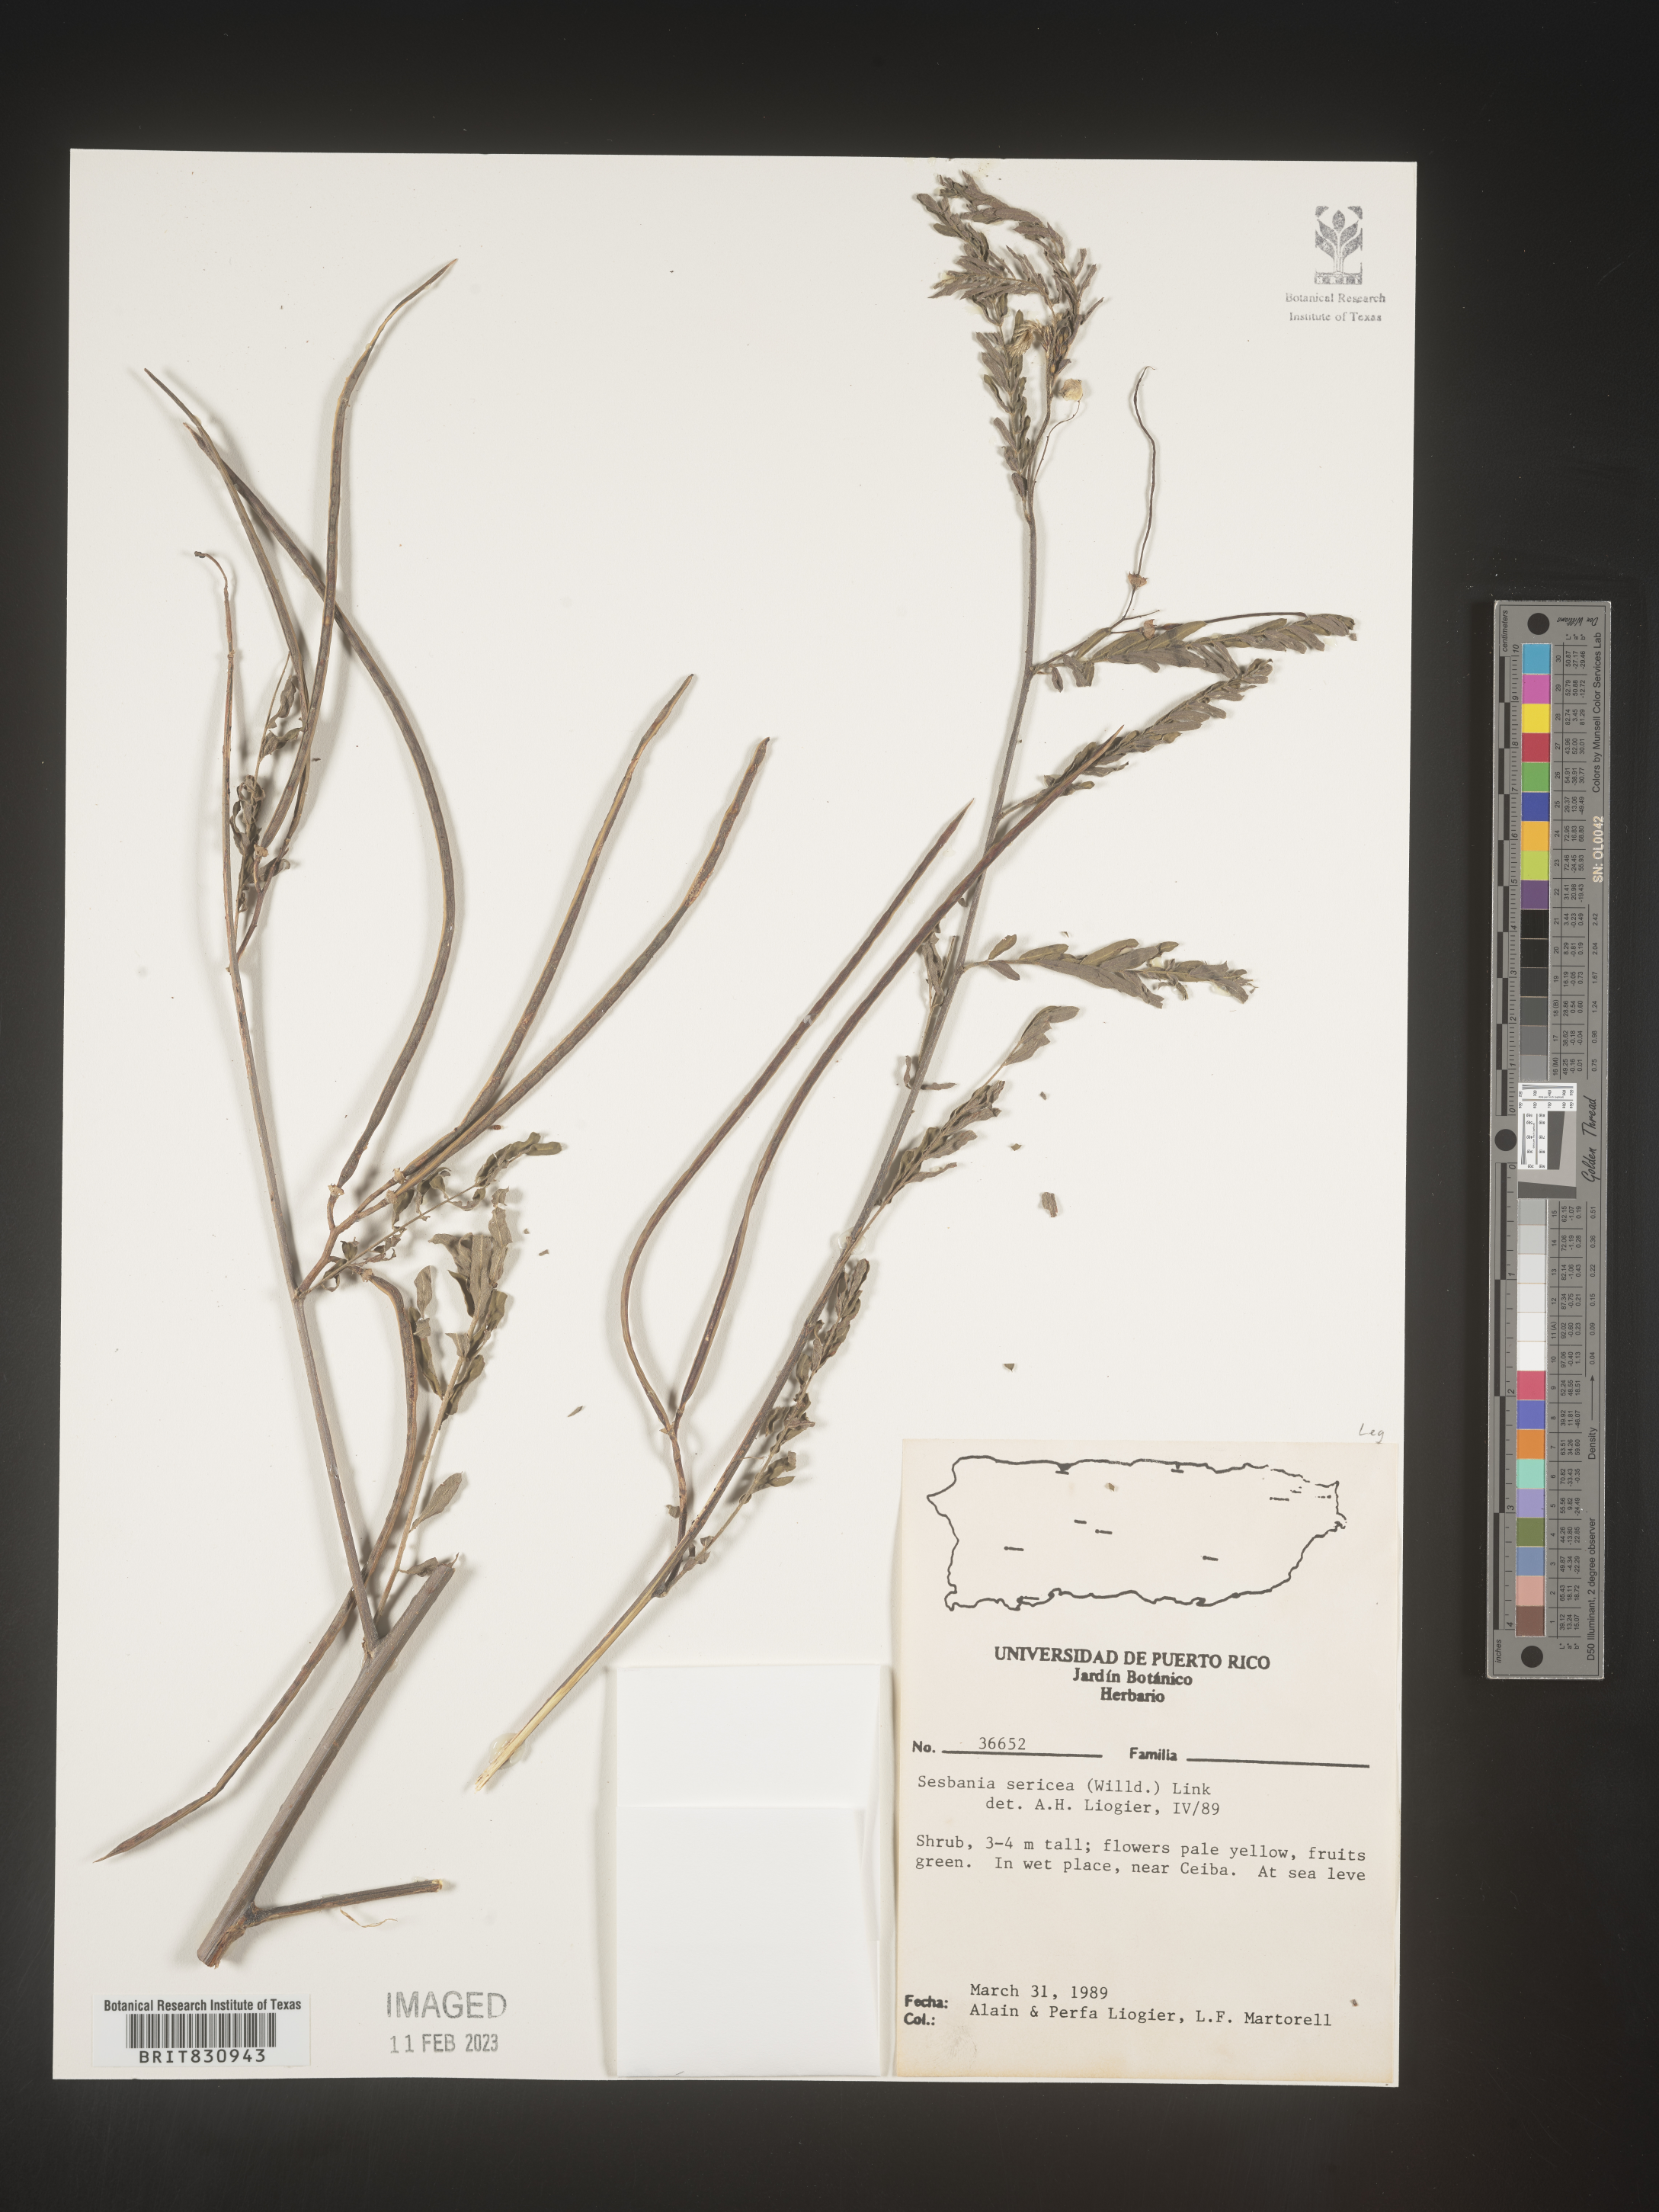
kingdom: Plantae
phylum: Tracheophyta
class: Magnoliopsida
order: Fabales
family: Fabaceae
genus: Sesbania
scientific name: Sesbania
